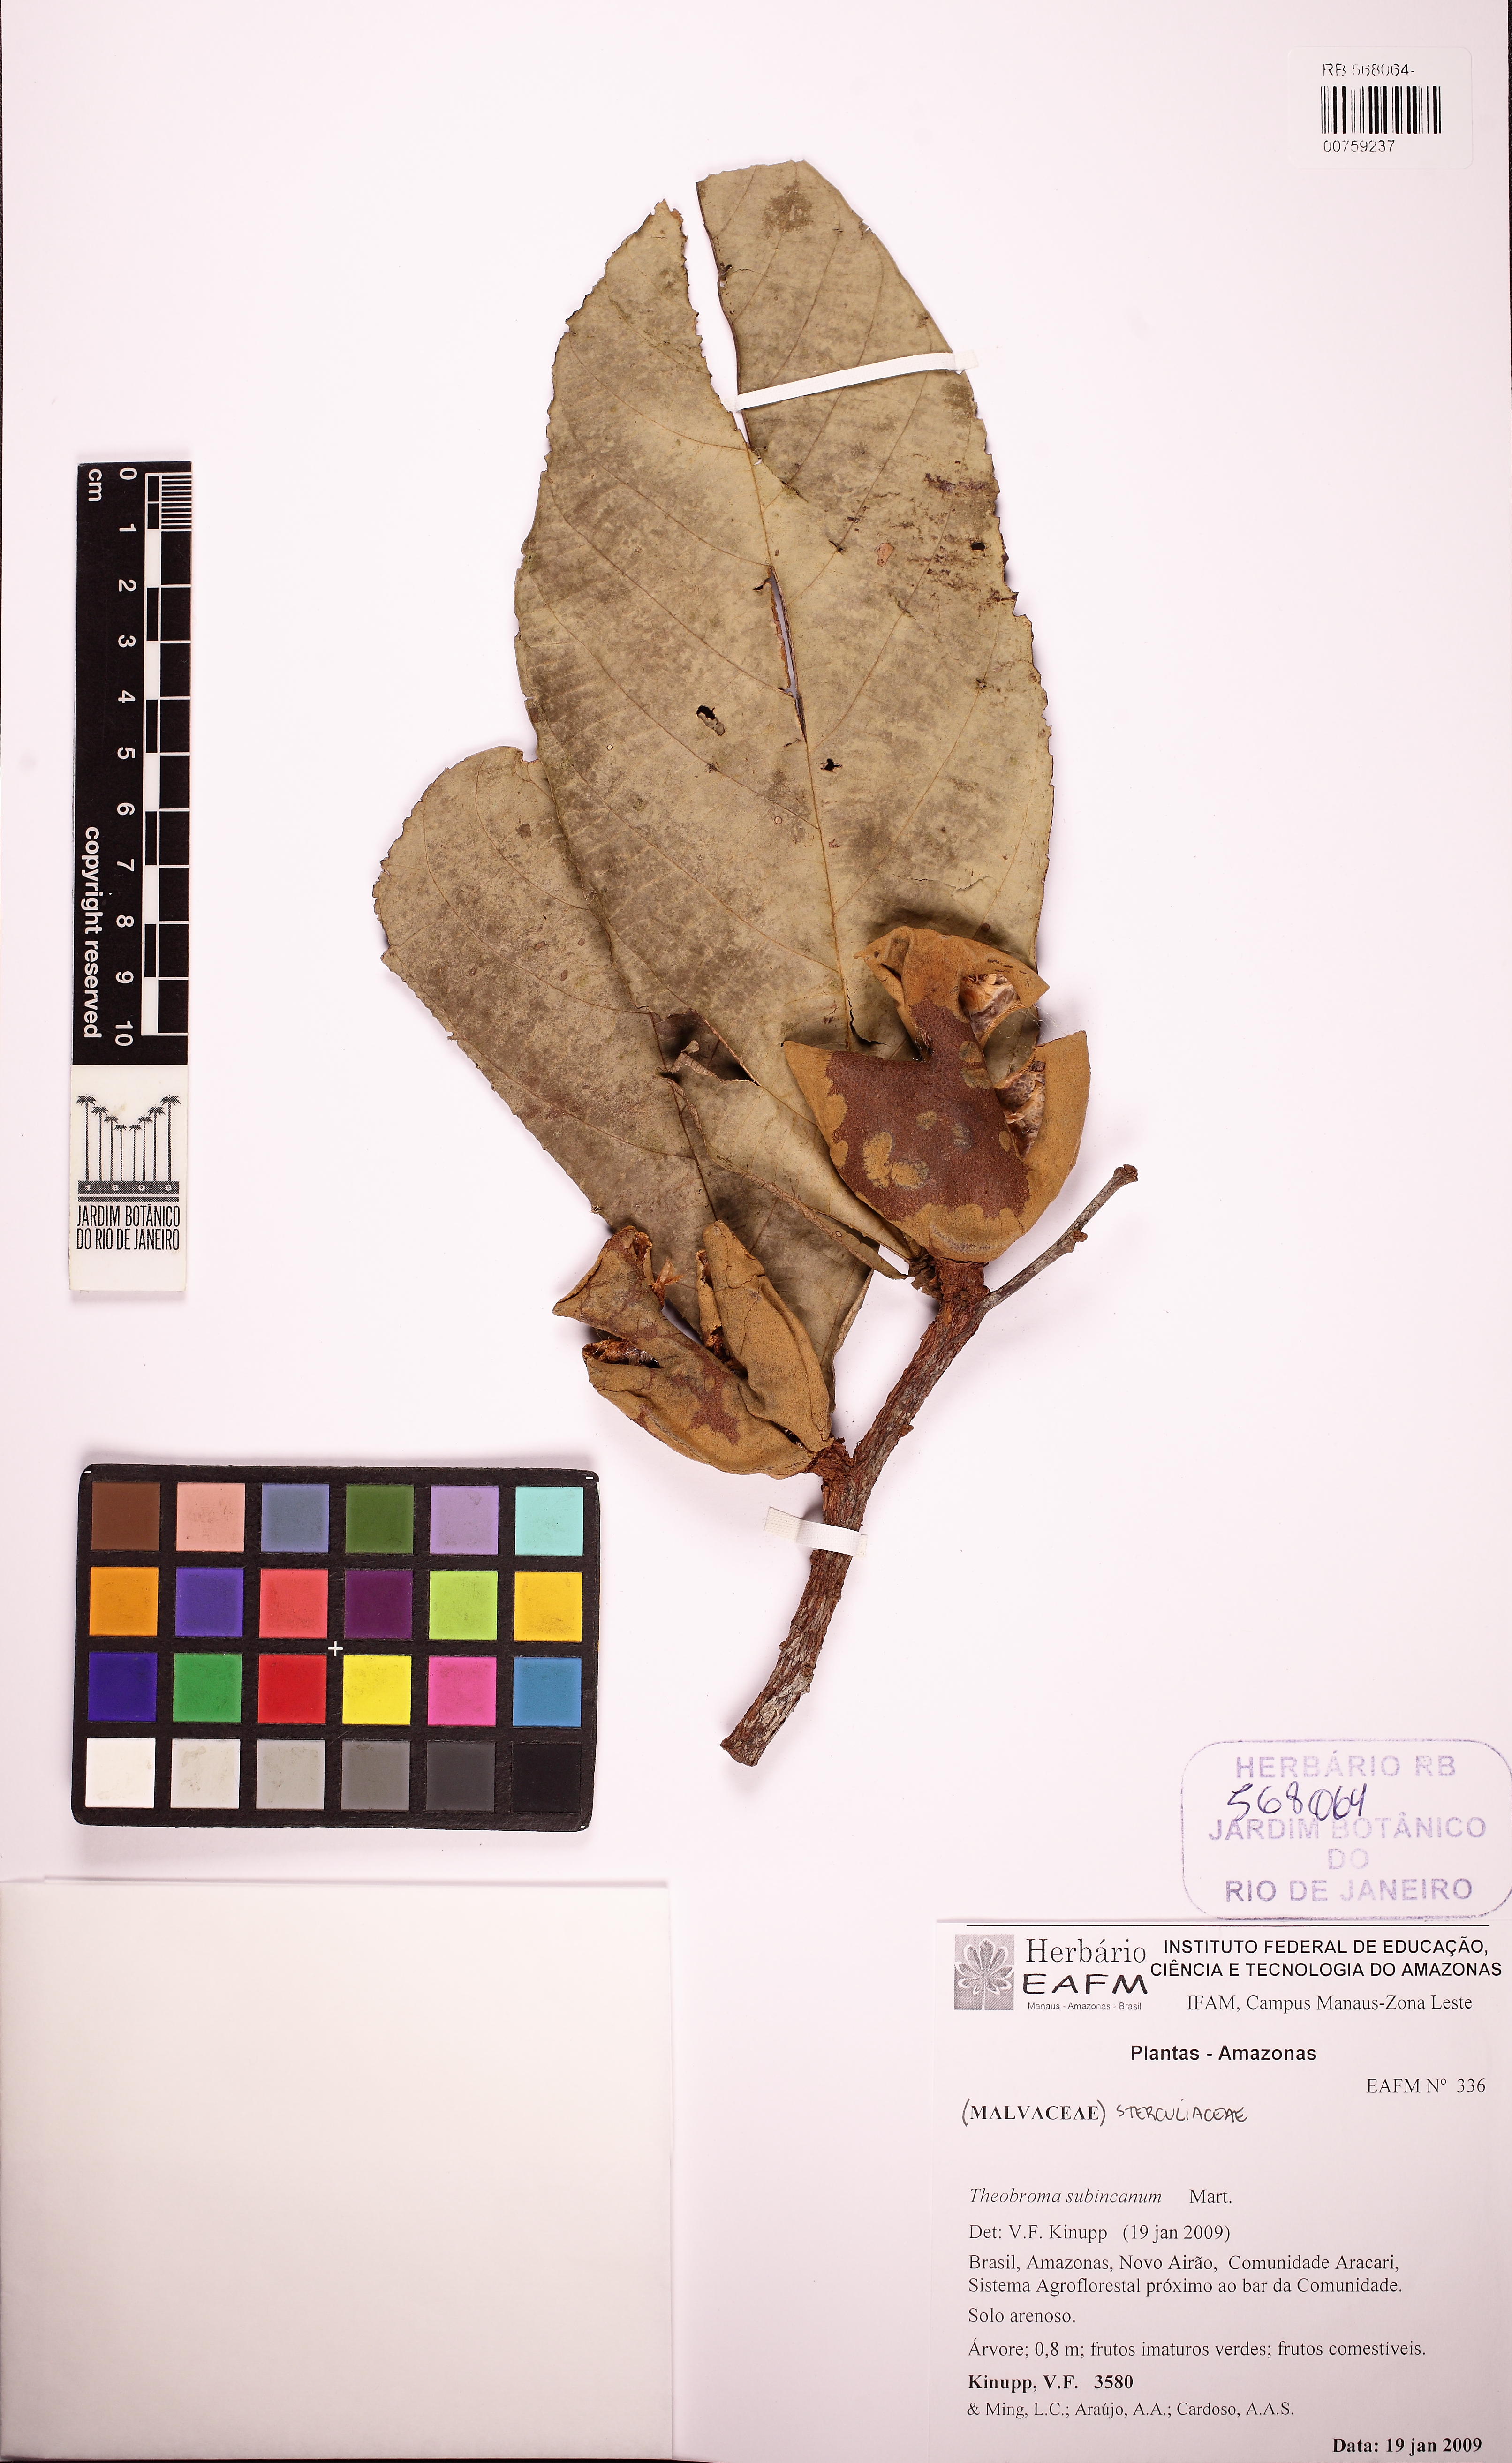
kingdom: Plantae
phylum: Tracheophyta
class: Magnoliopsida
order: Malvales
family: Malvaceae
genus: Theobroma
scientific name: Theobroma subincanum
